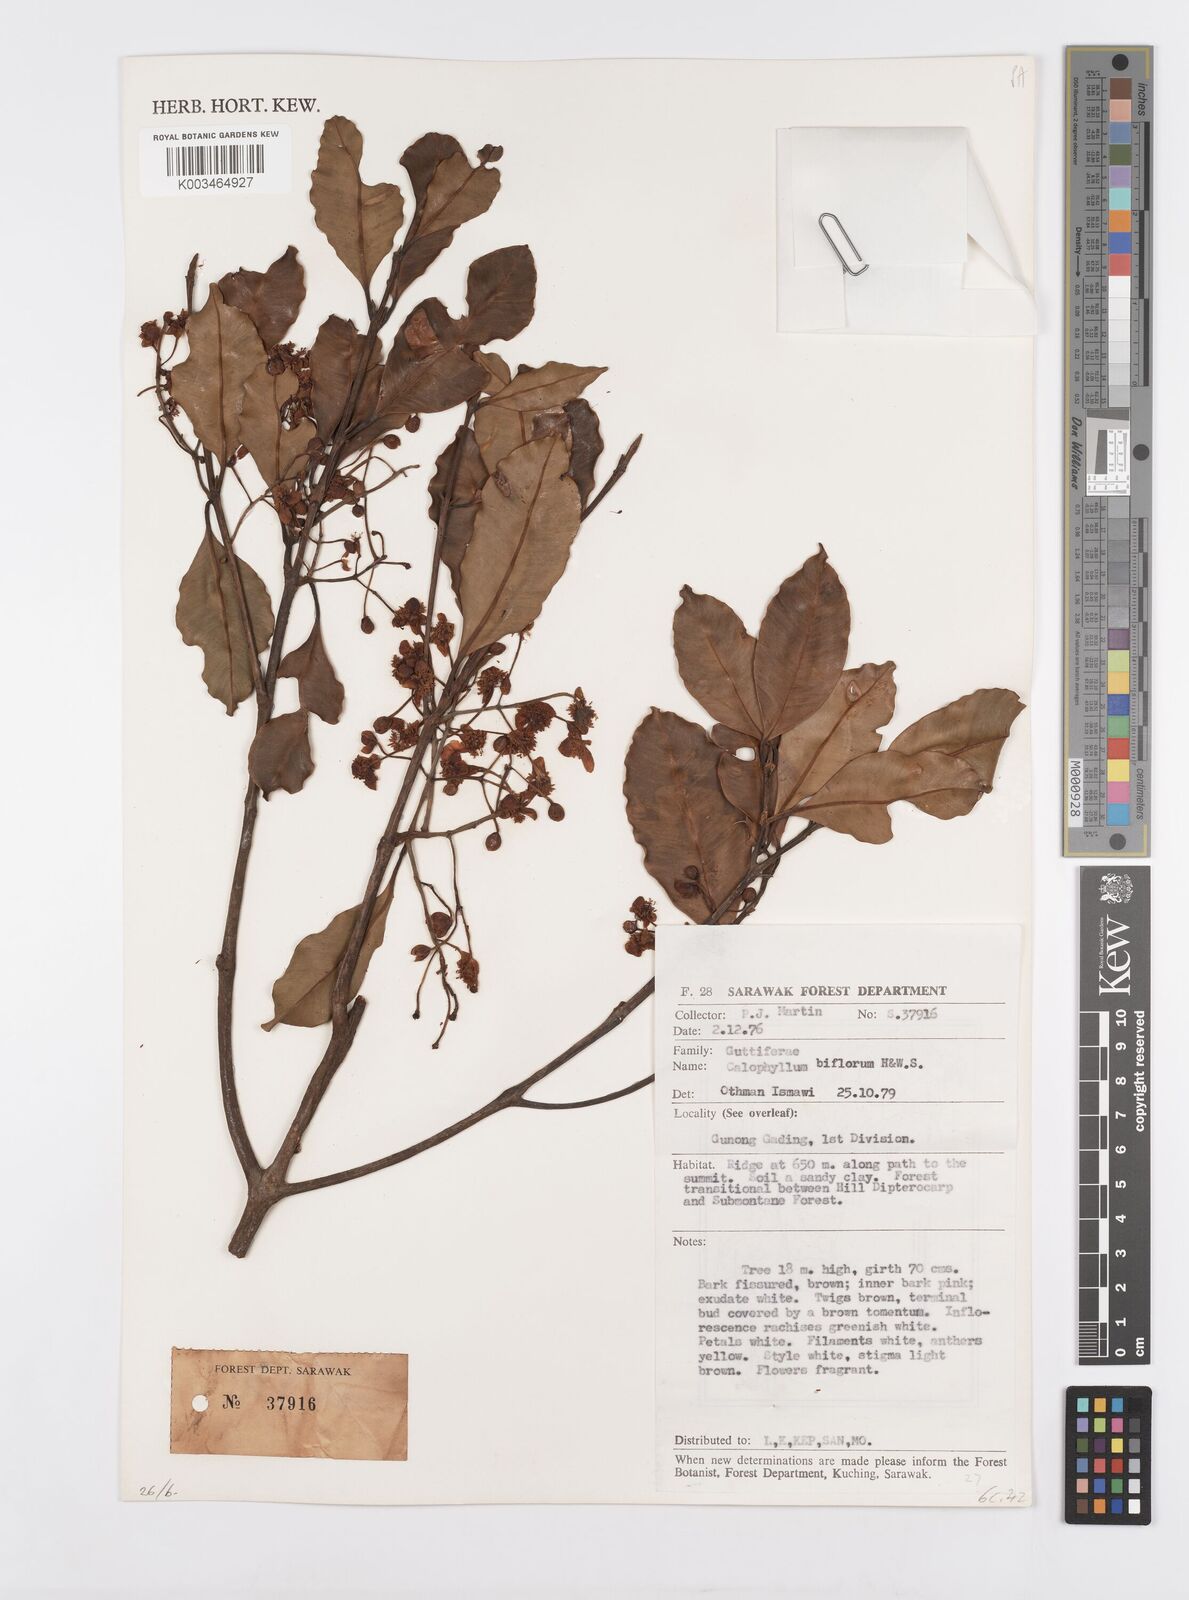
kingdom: Plantae
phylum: Tracheophyta
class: Magnoliopsida
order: Malpighiales
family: Calophyllaceae
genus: Calophyllum
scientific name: Calophyllum biflorum
